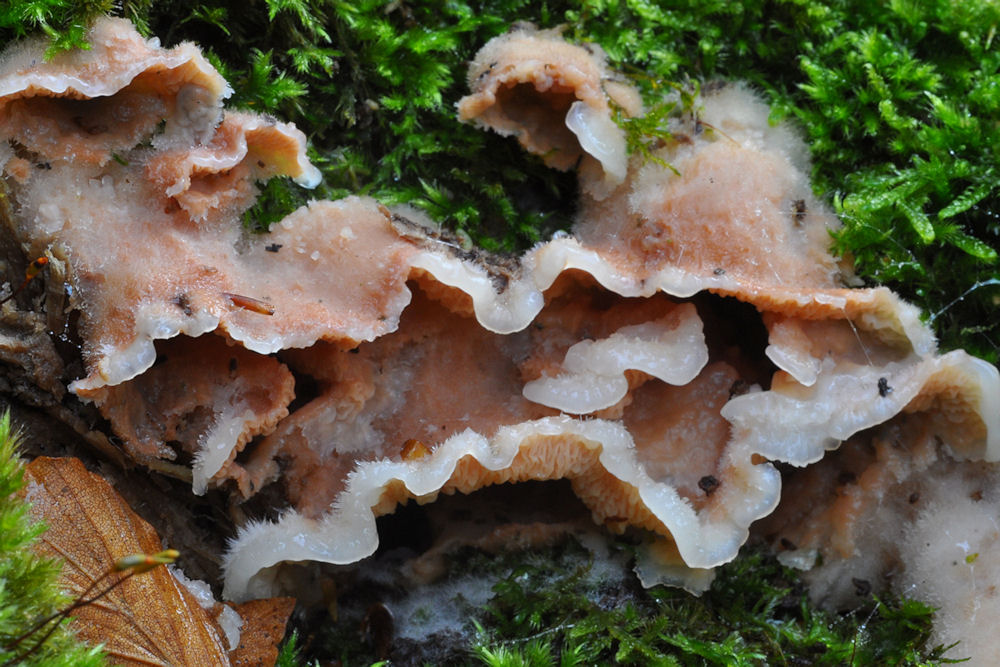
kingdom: Fungi
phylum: Basidiomycota
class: Agaricomycetes
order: Polyporales
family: Meruliaceae
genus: Phlebia
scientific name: Phlebia tremellosa
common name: bævrende åresvamp
